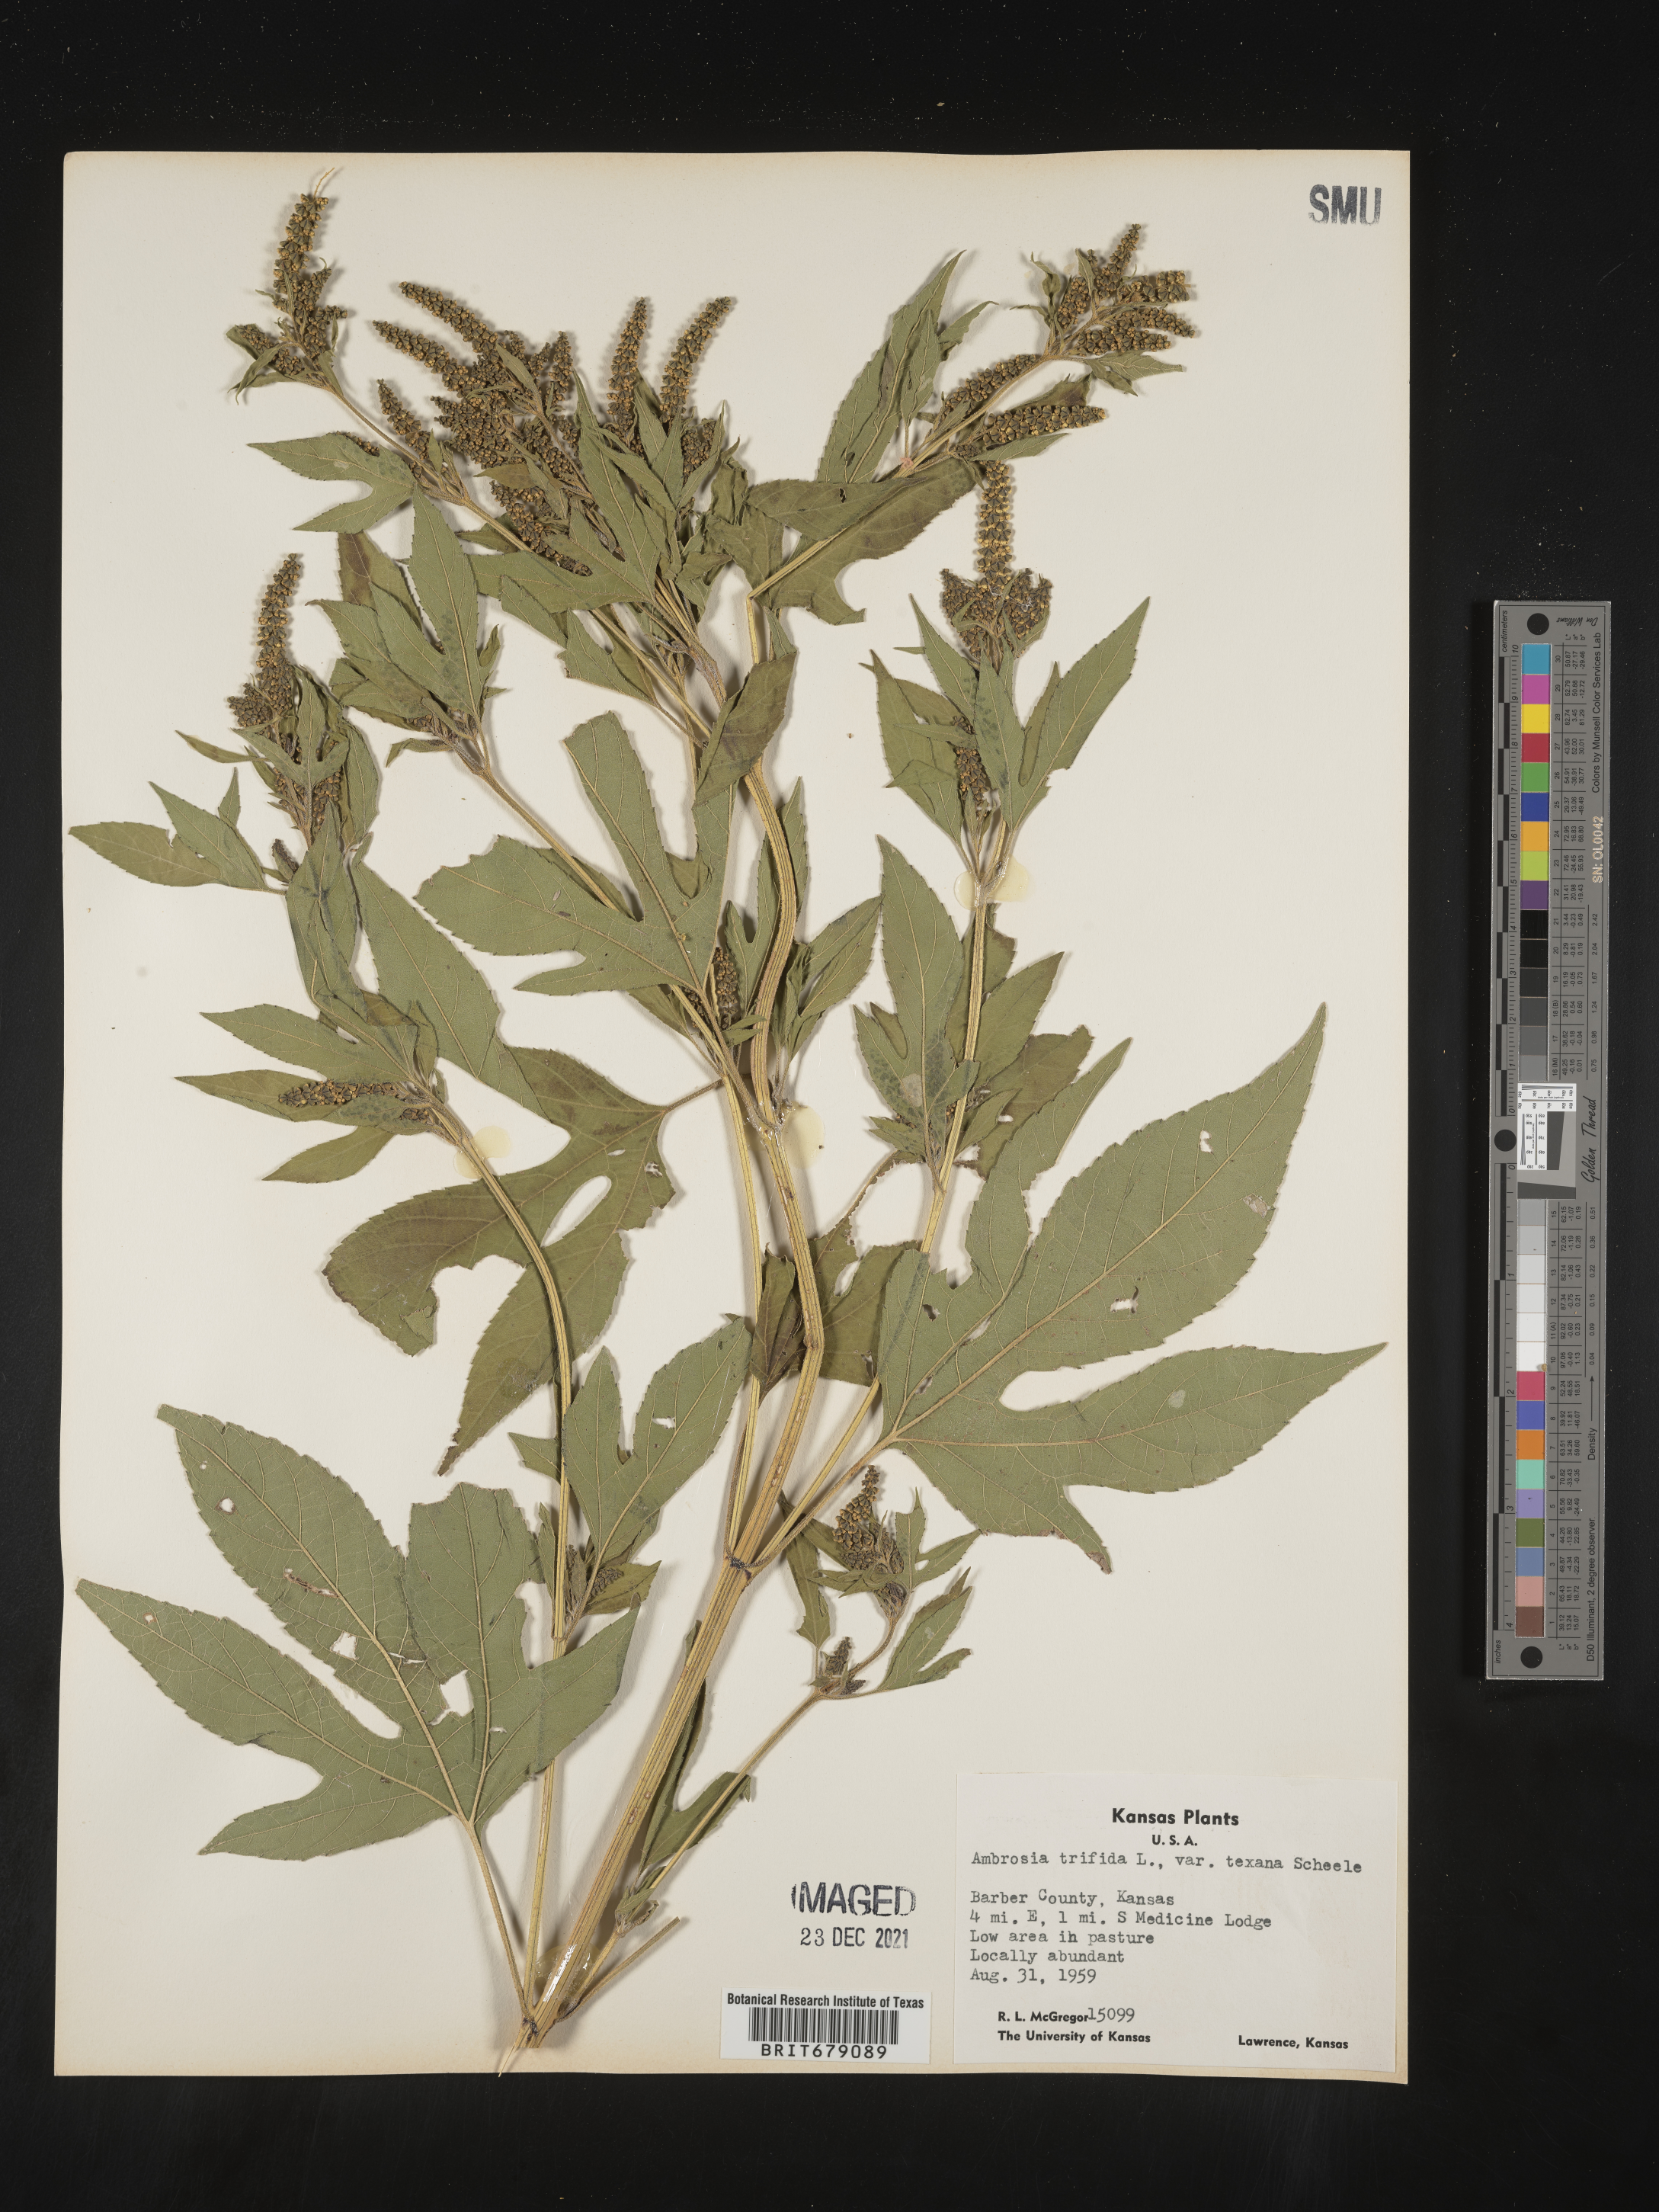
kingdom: Plantae
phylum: Tracheophyta
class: Magnoliopsida
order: Asterales
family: Asteraceae
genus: Ambrosia
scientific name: Ambrosia trifida
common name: Giant ragweed
